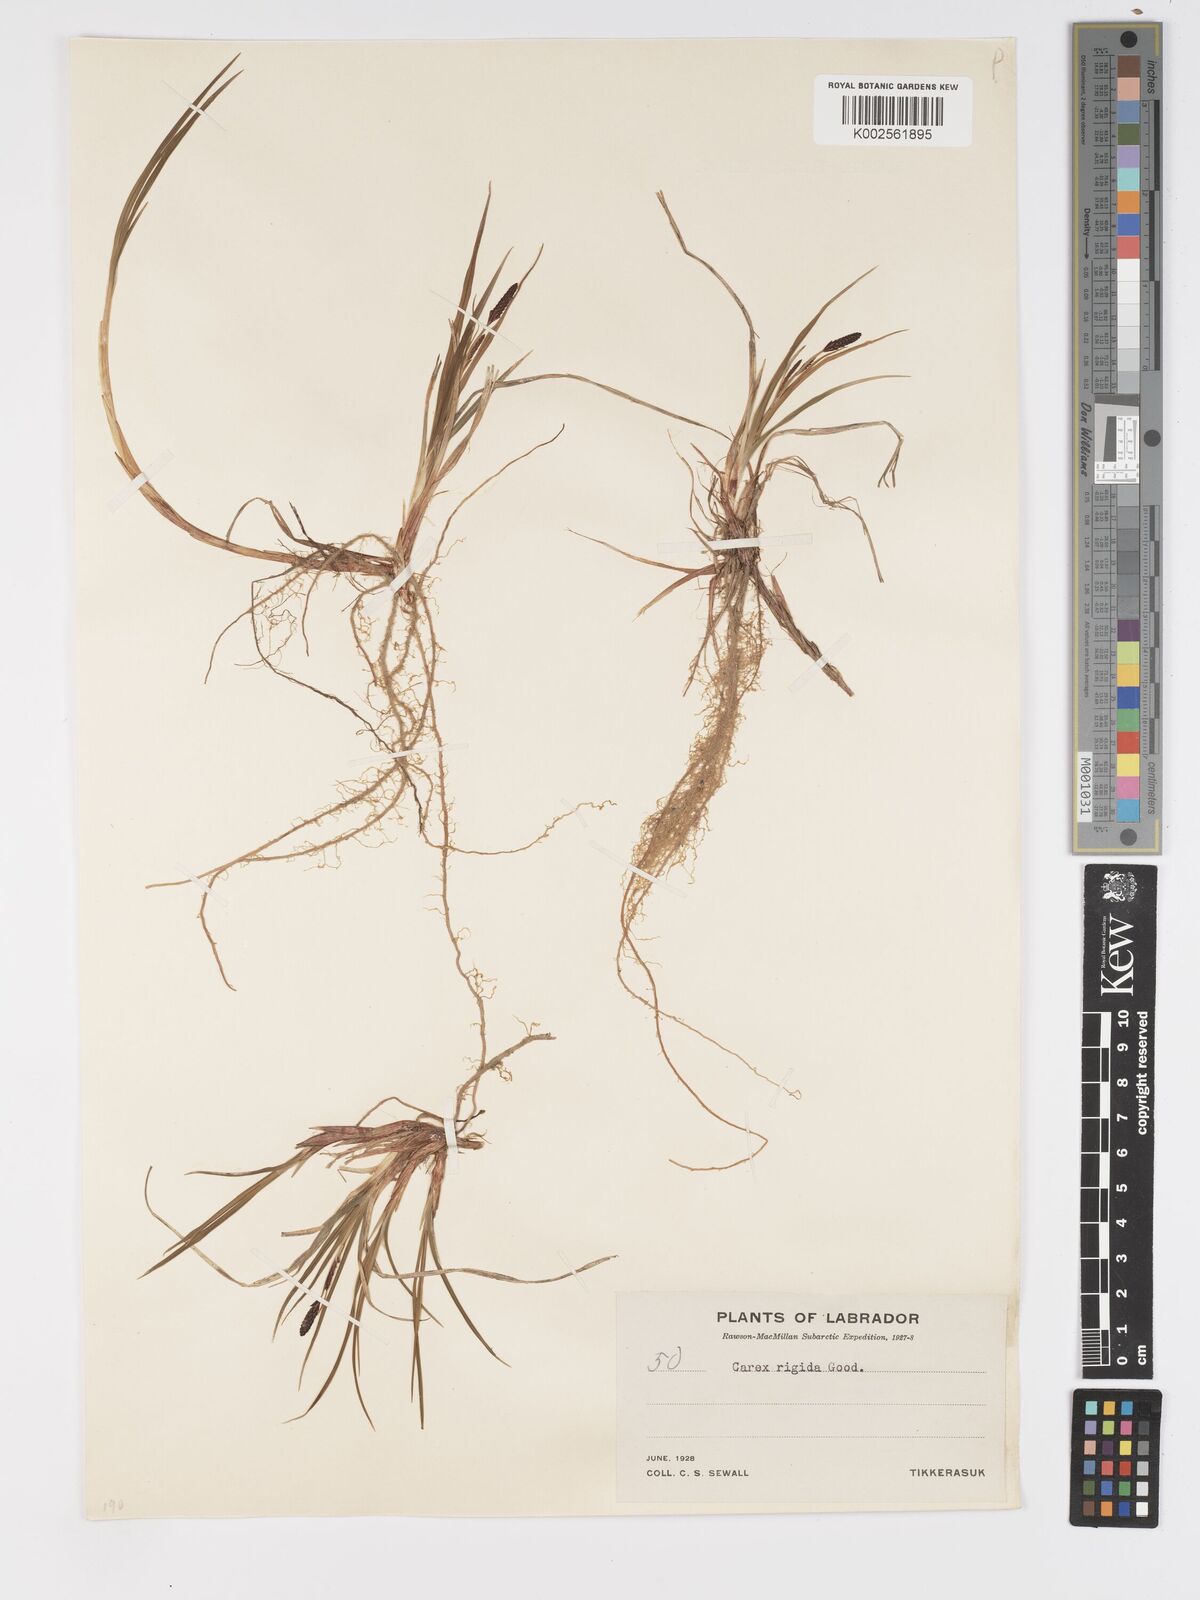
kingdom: Plantae
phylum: Tracheophyta
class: Liliopsida
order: Poales
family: Cyperaceae
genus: Carex
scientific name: Carex bigelowii
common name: Stiff sedge
